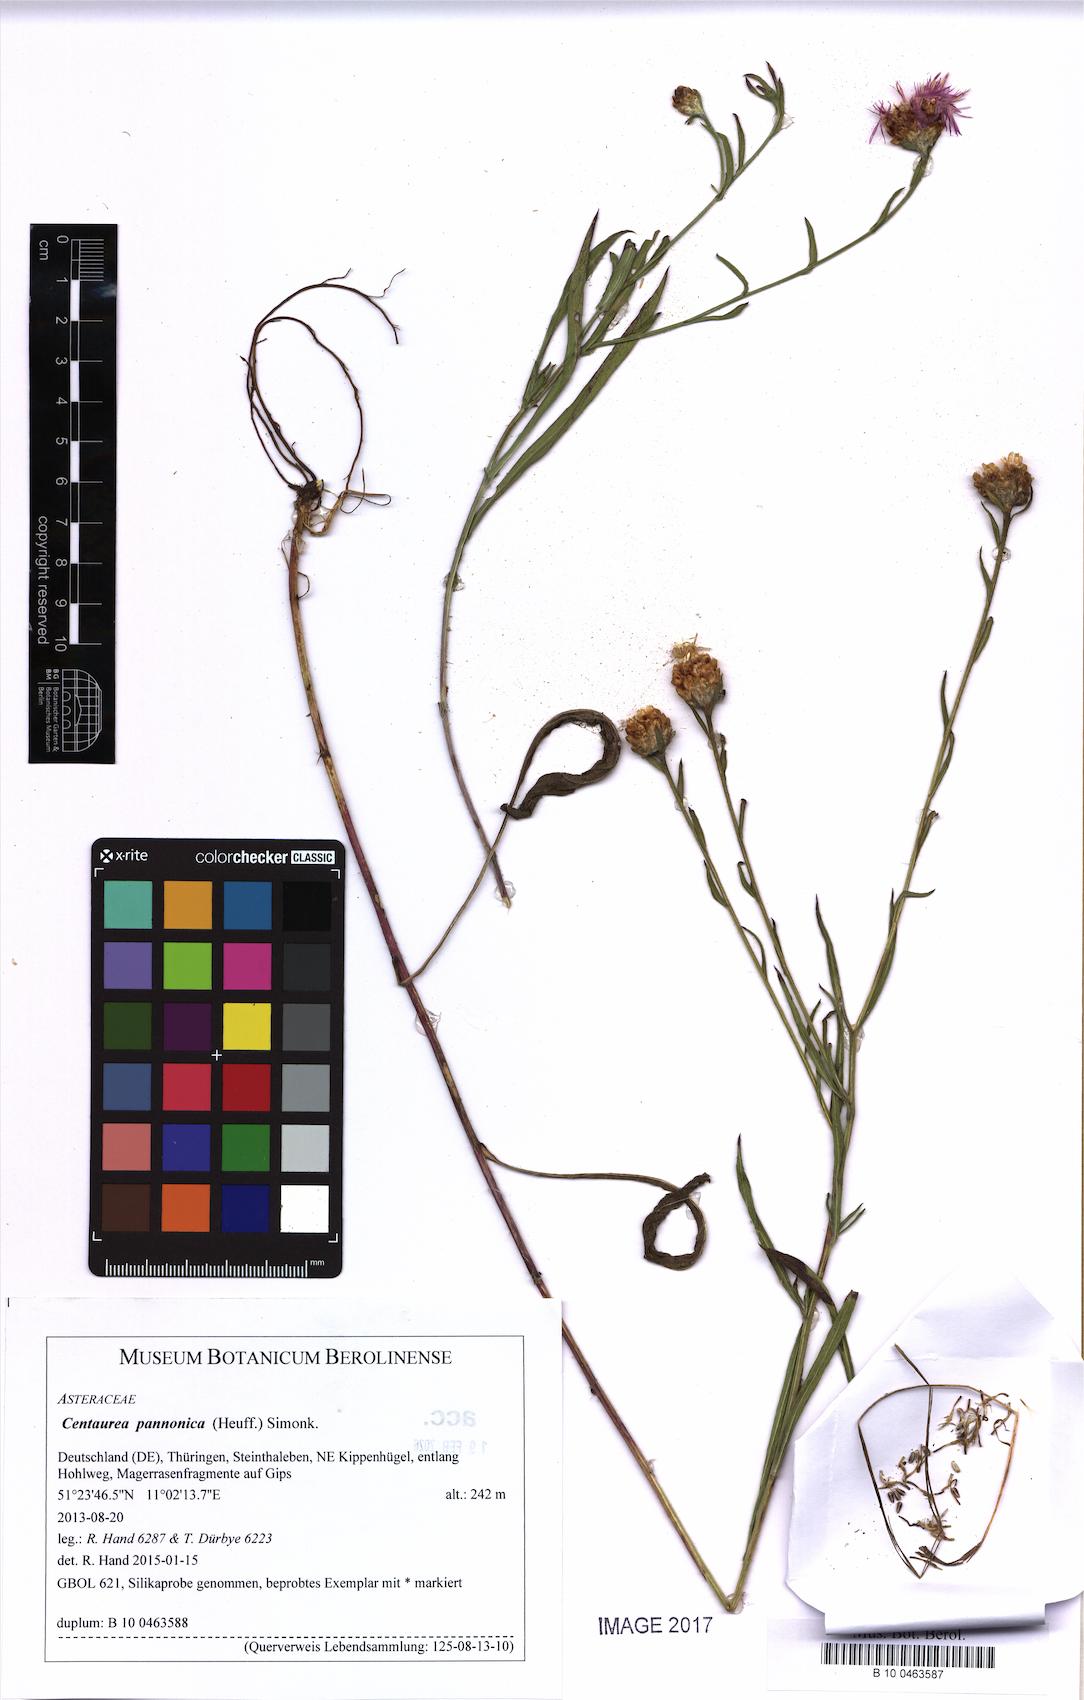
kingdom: Plantae
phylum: Tracheophyta
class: Magnoliopsida
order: Asterales
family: Asteraceae
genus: Centaurea
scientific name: Centaurea pannonica
